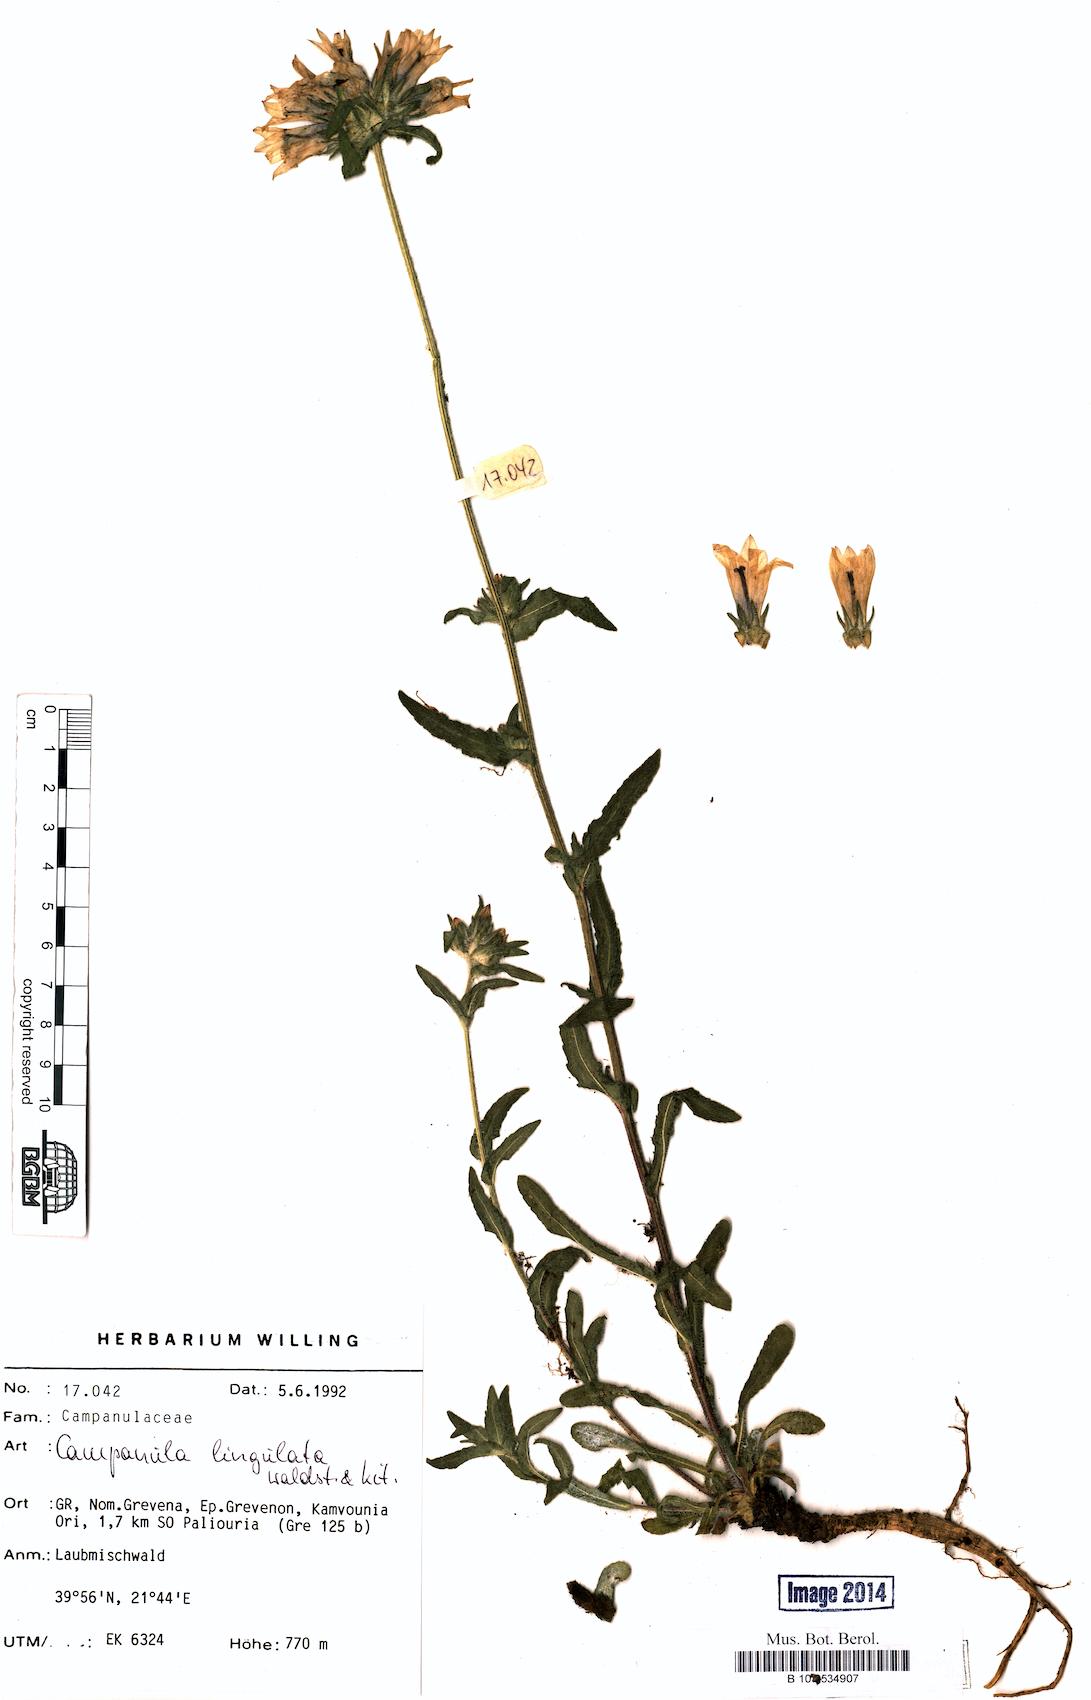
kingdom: Plantae
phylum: Tracheophyta
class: Magnoliopsida
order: Asterales
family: Campanulaceae
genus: Campanula
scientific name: Campanula lingulata
